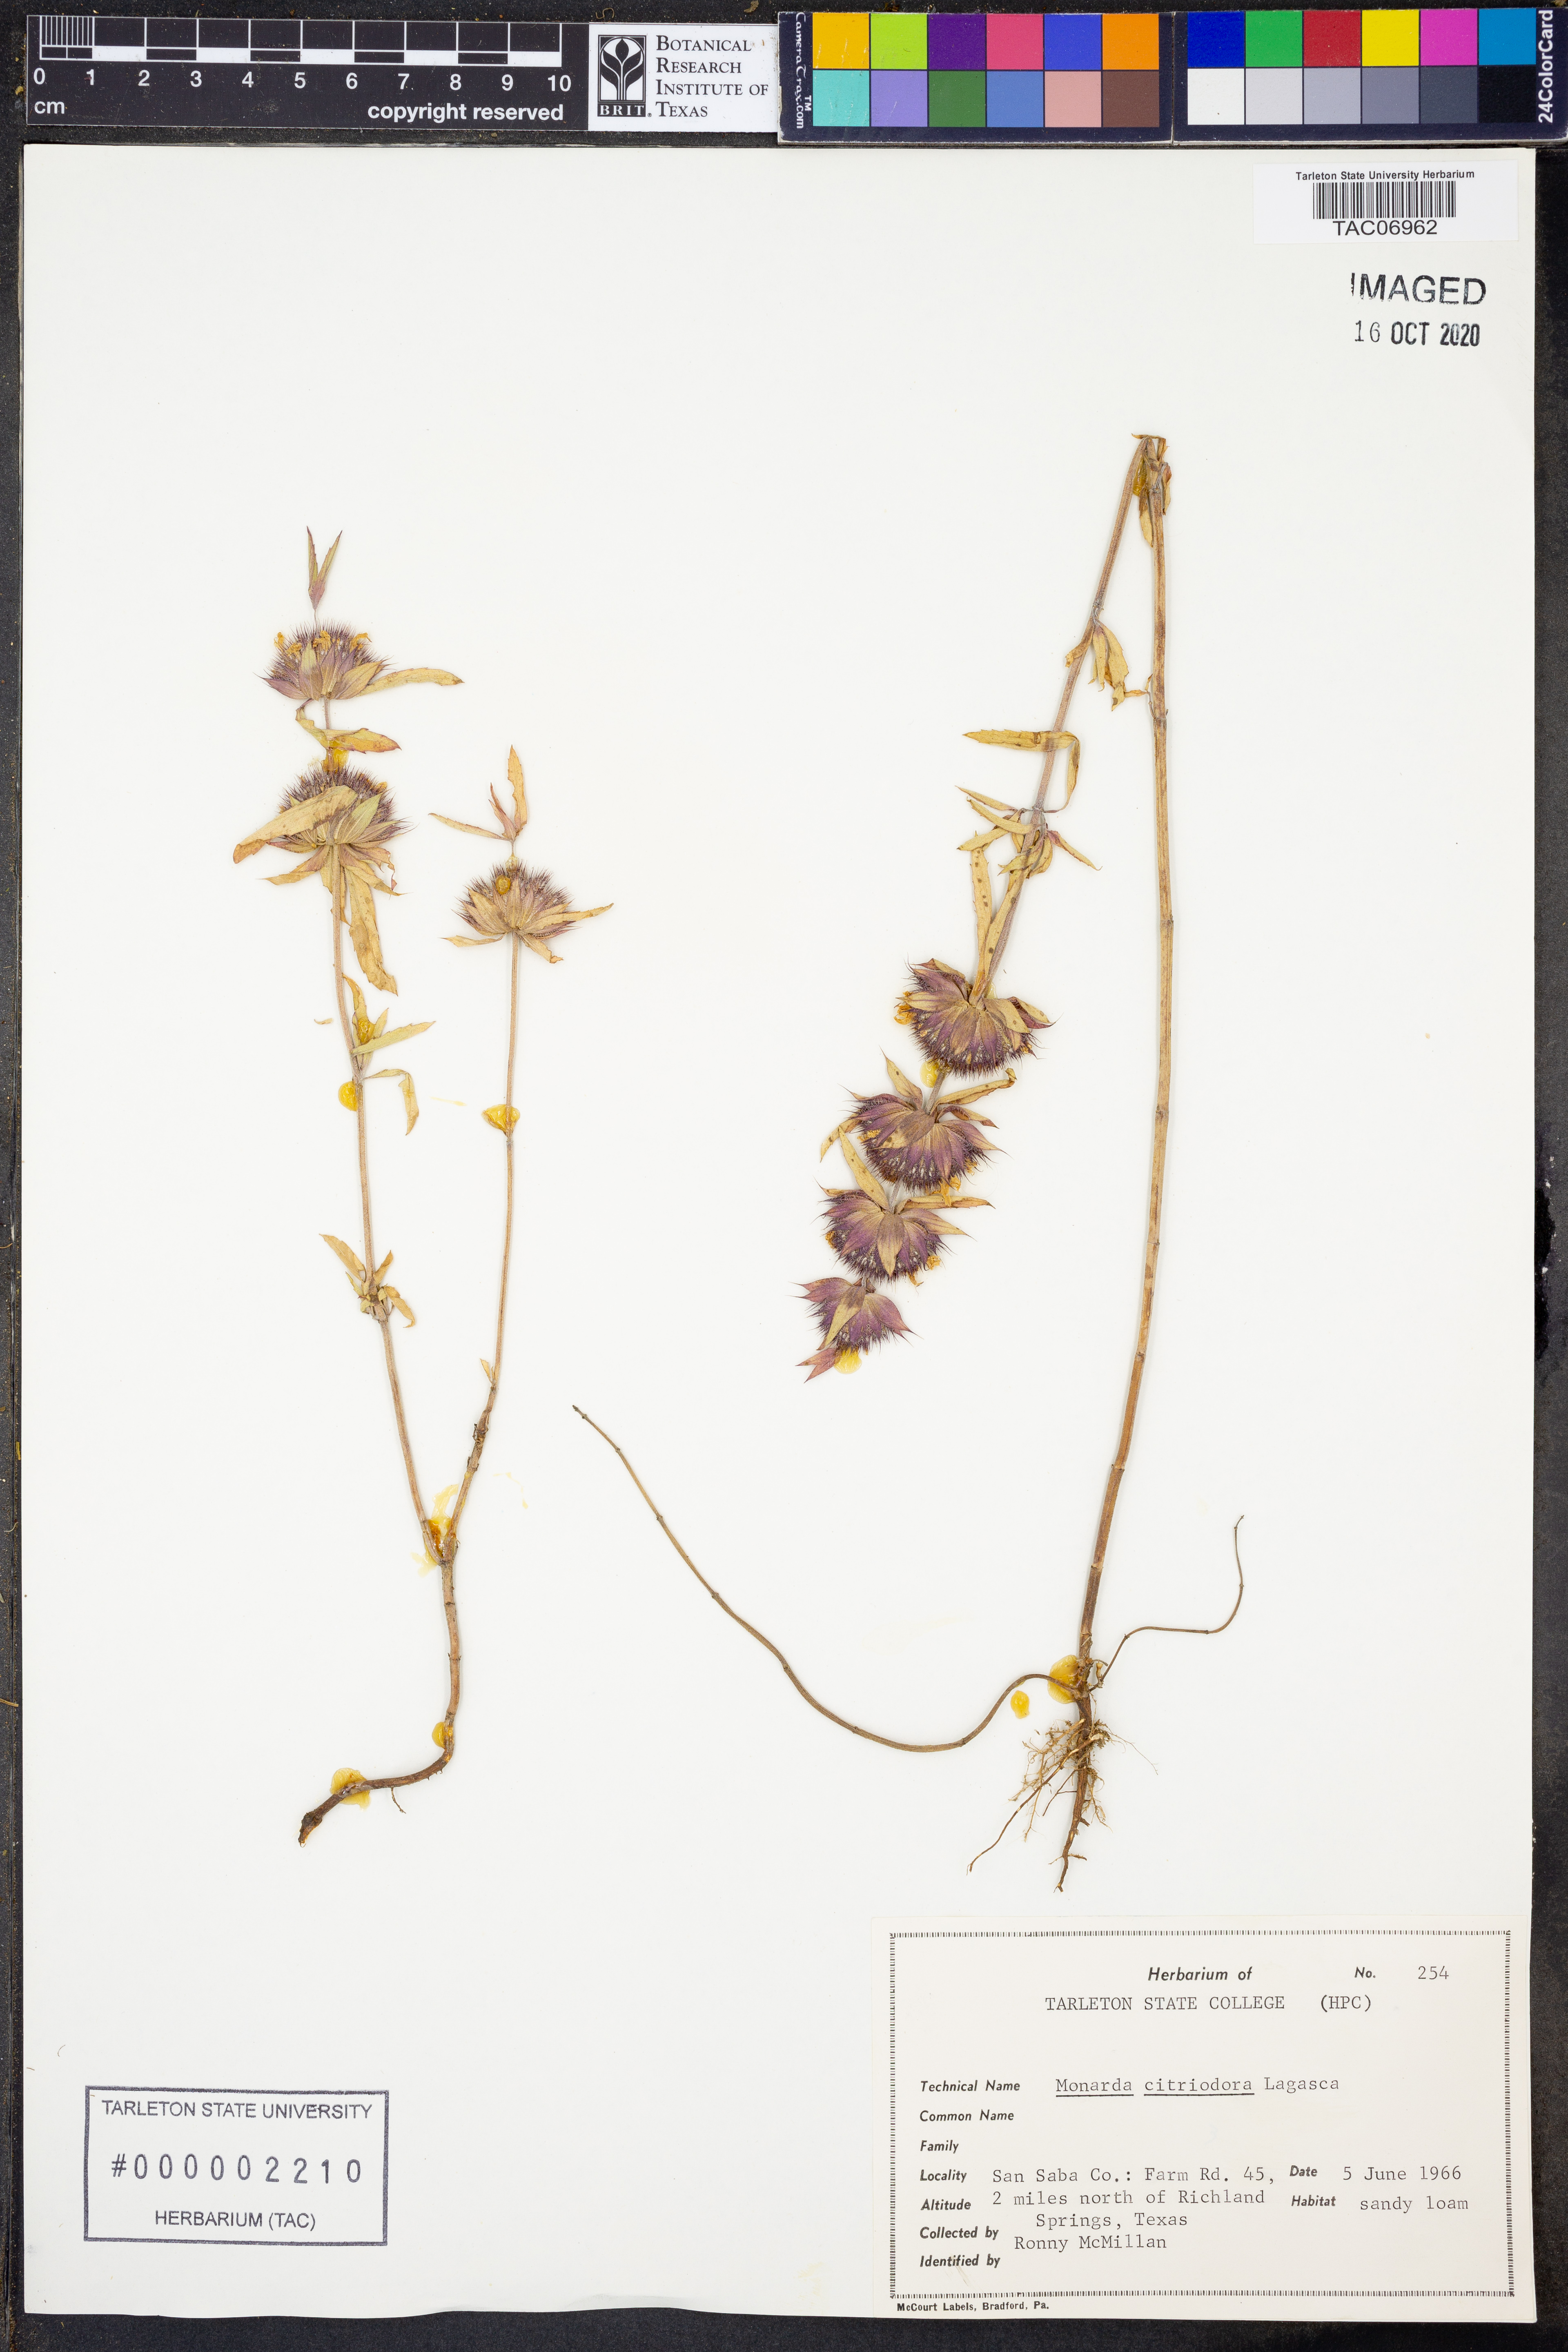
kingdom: Plantae
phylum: Tracheophyta
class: Magnoliopsida
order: Lamiales
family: Lamiaceae
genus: Monarda
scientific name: Monarda citriodora
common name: Lemon beebalm
